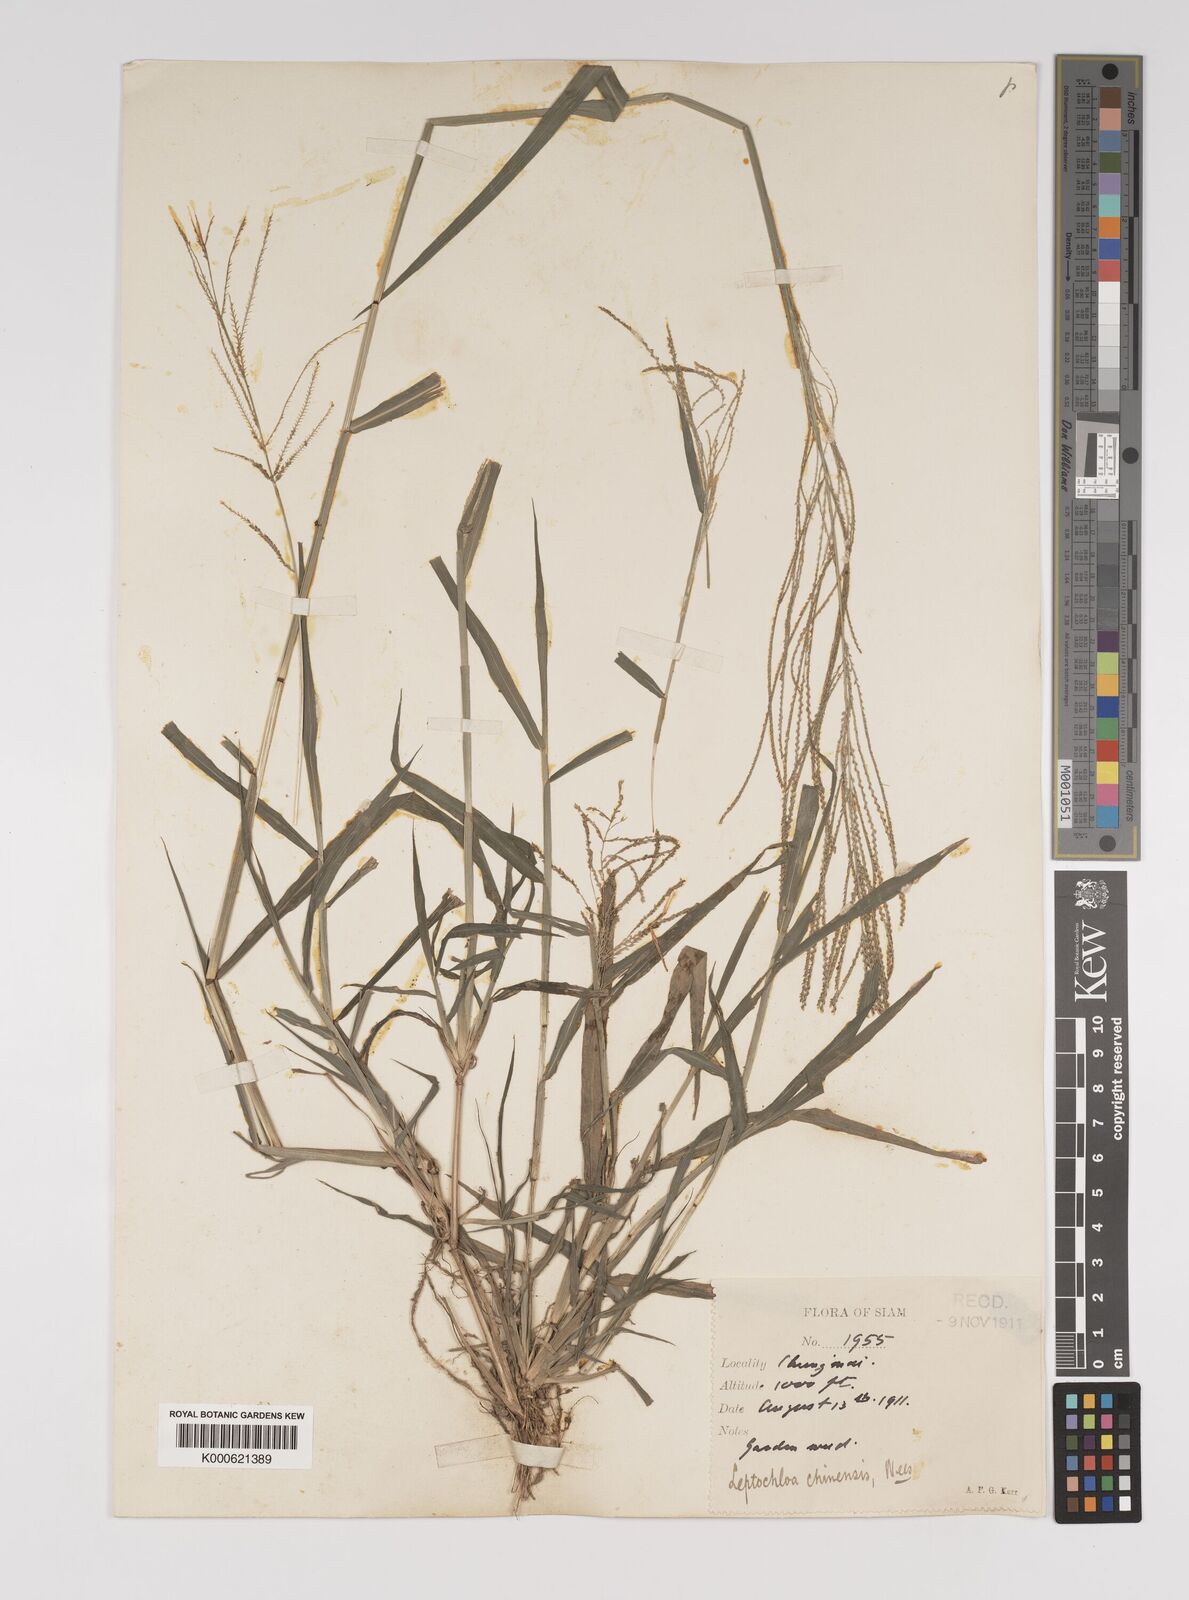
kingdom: Plantae
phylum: Tracheophyta
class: Liliopsida
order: Poales
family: Poaceae
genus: Leptochloa
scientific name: Leptochloa panicea
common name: Mucronate sprangletop
